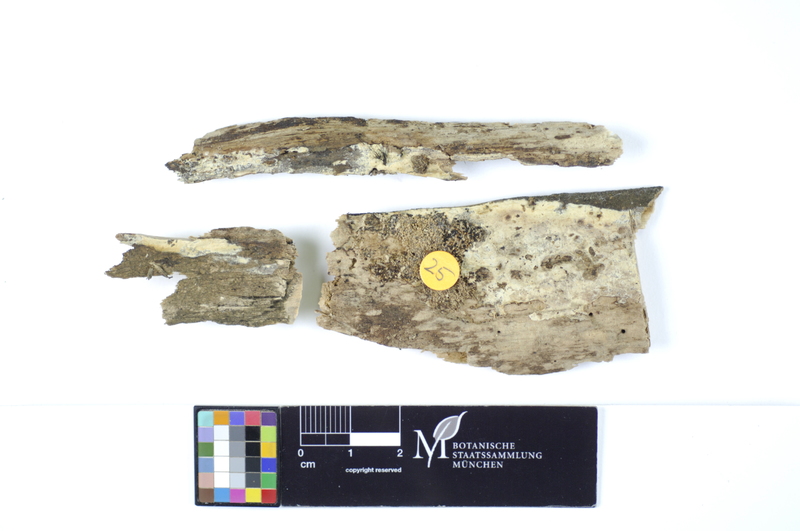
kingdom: Fungi
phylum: Basidiomycota
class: Agaricomycetes
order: Polyporales
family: Hyphodermataceae
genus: Hyphoderma
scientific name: Hyphoderma roseocremeum
